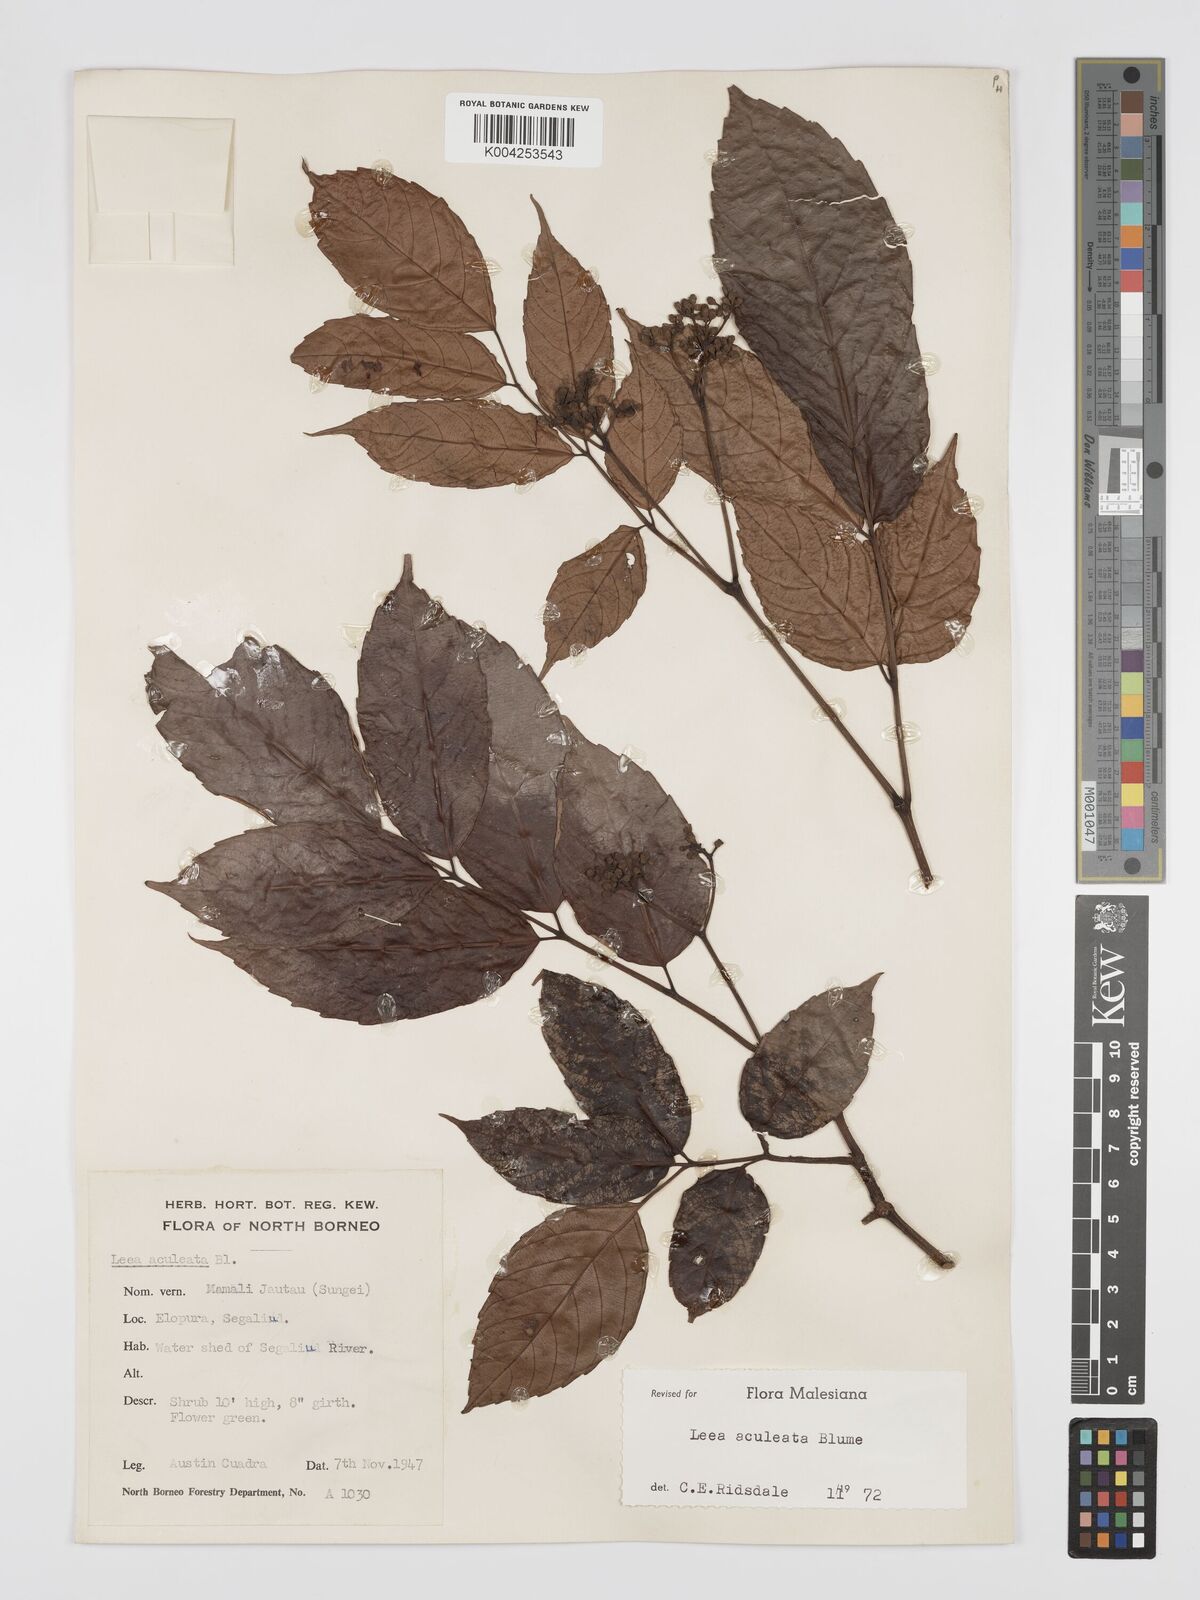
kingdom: Plantae
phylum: Tracheophyta
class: Magnoliopsida
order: Vitales
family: Vitaceae
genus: Leea
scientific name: Leea aculeata
